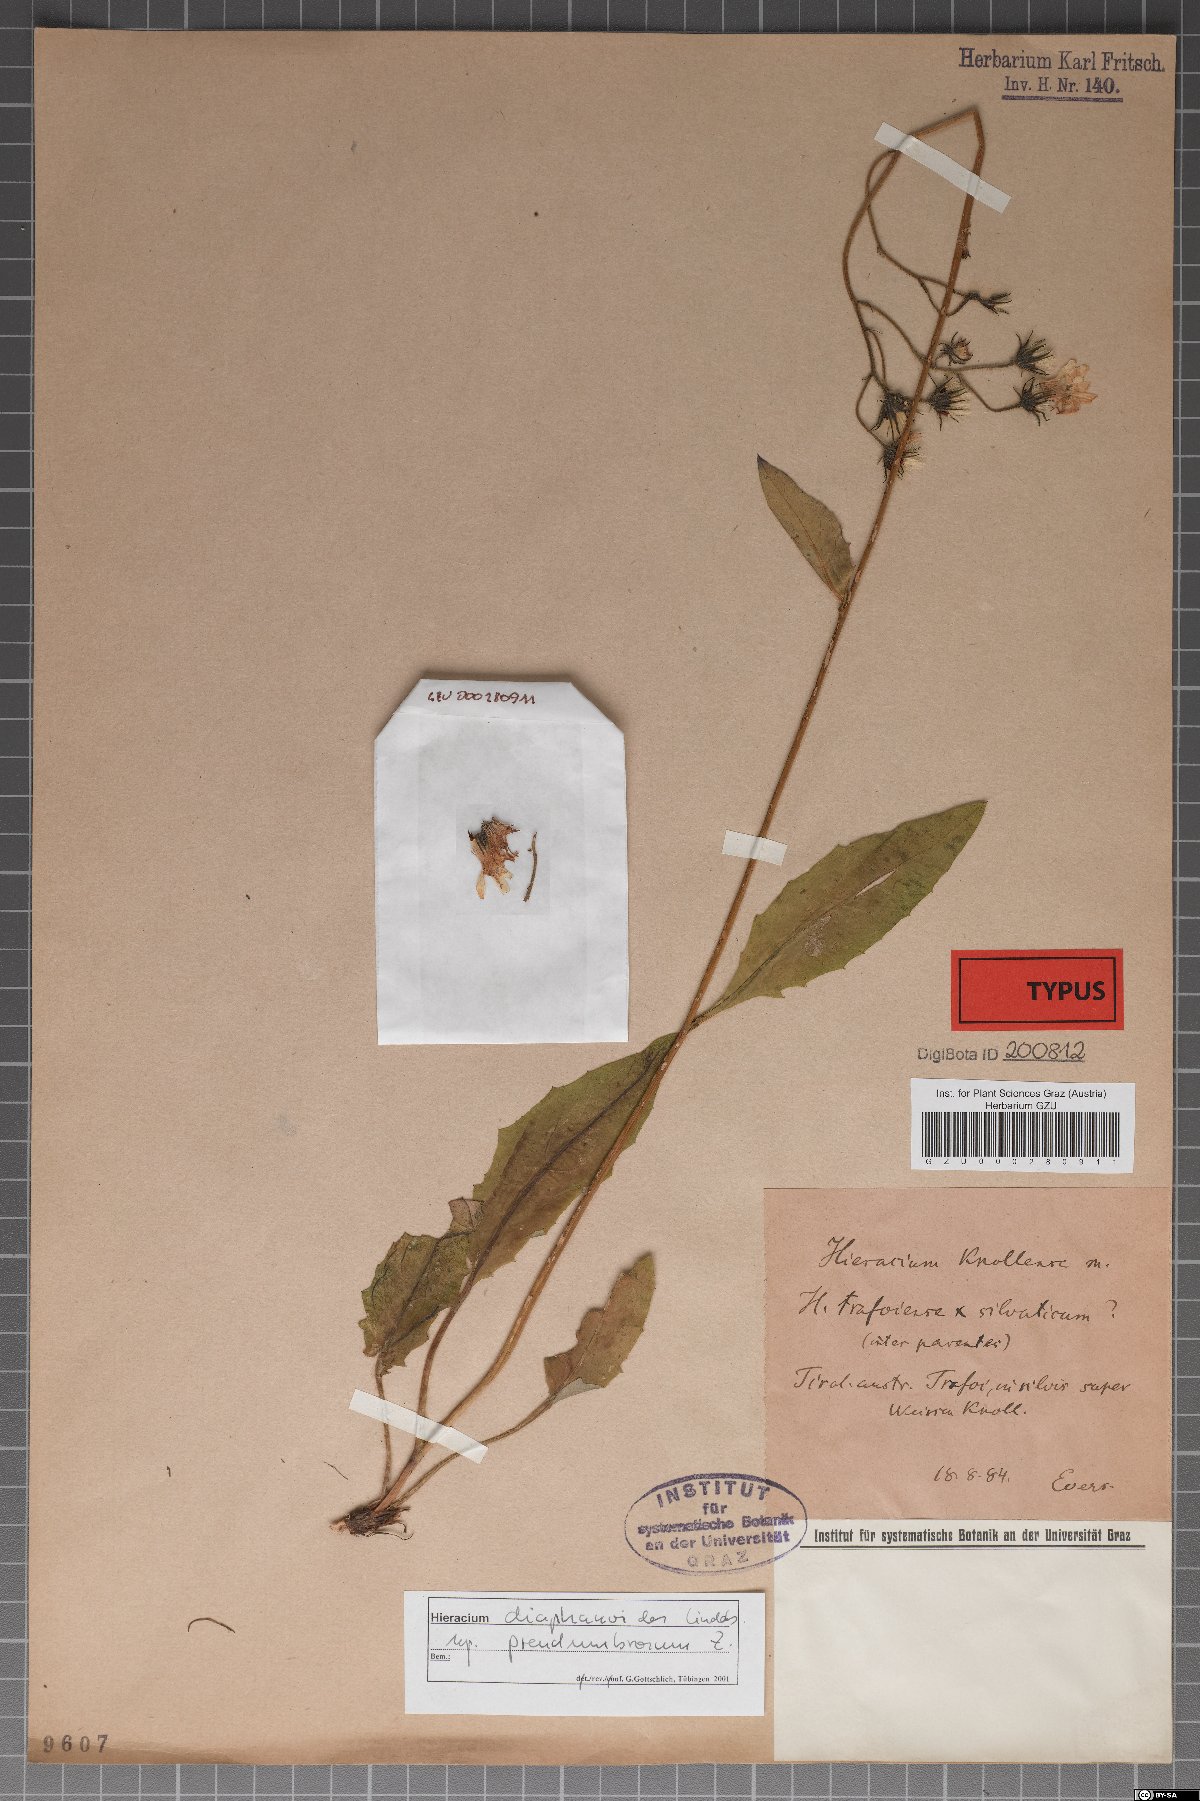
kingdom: Plantae
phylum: Tracheophyta
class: Magnoliopsida
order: Asterales
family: Asteraceae
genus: Hieracium
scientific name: Hieracium knollense
